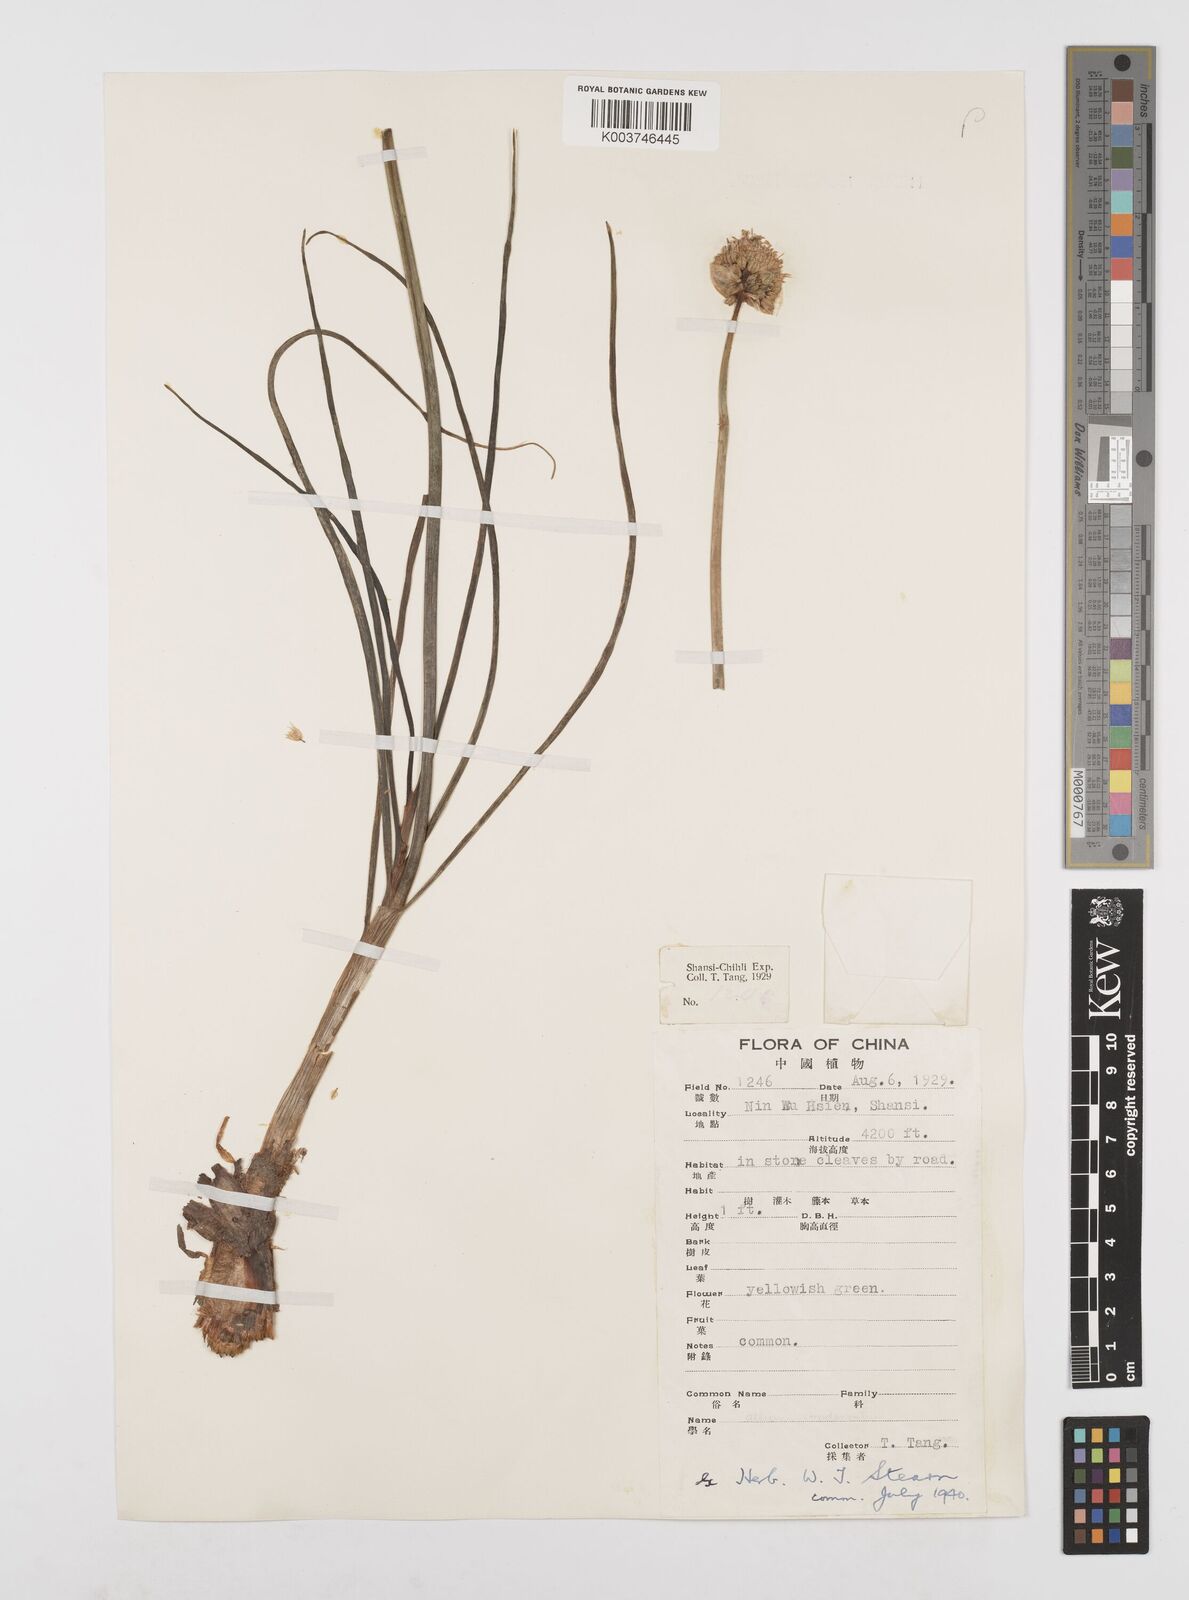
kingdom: Plantae
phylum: Tracheophyta
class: Liliopsida
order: Asparagales
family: Amaryllidaceae
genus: Allium
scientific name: Allium condensatum
